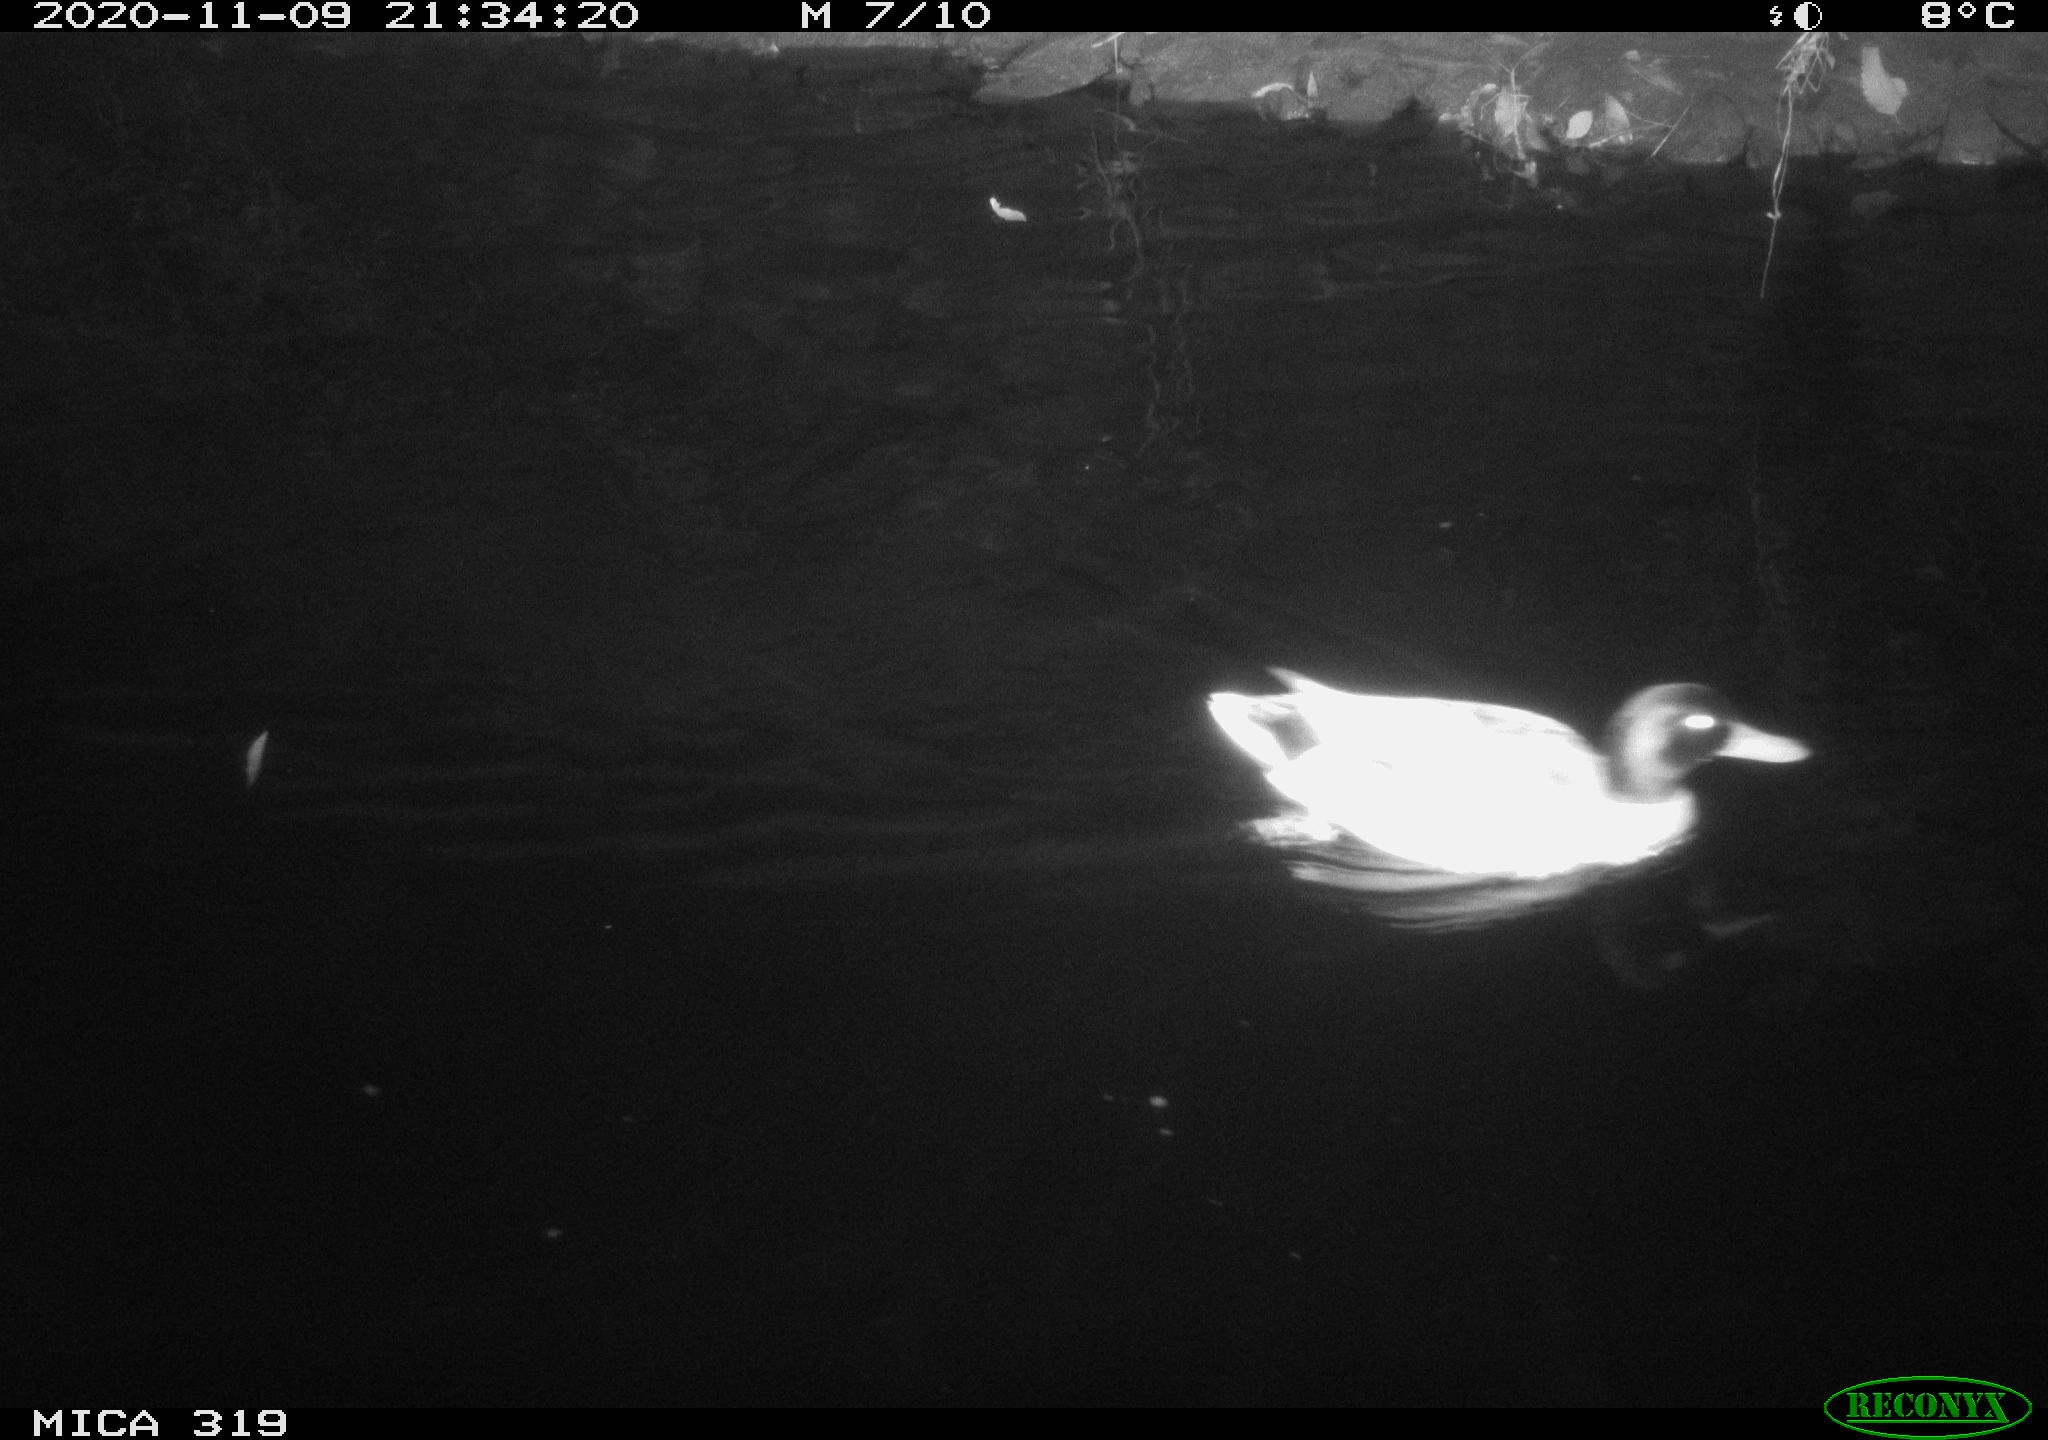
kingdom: Animalia
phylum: Chordata
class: Aves
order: Anseriformes
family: Anatidae
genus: Anas
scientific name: Anas platyrhynchos
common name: Mallard
